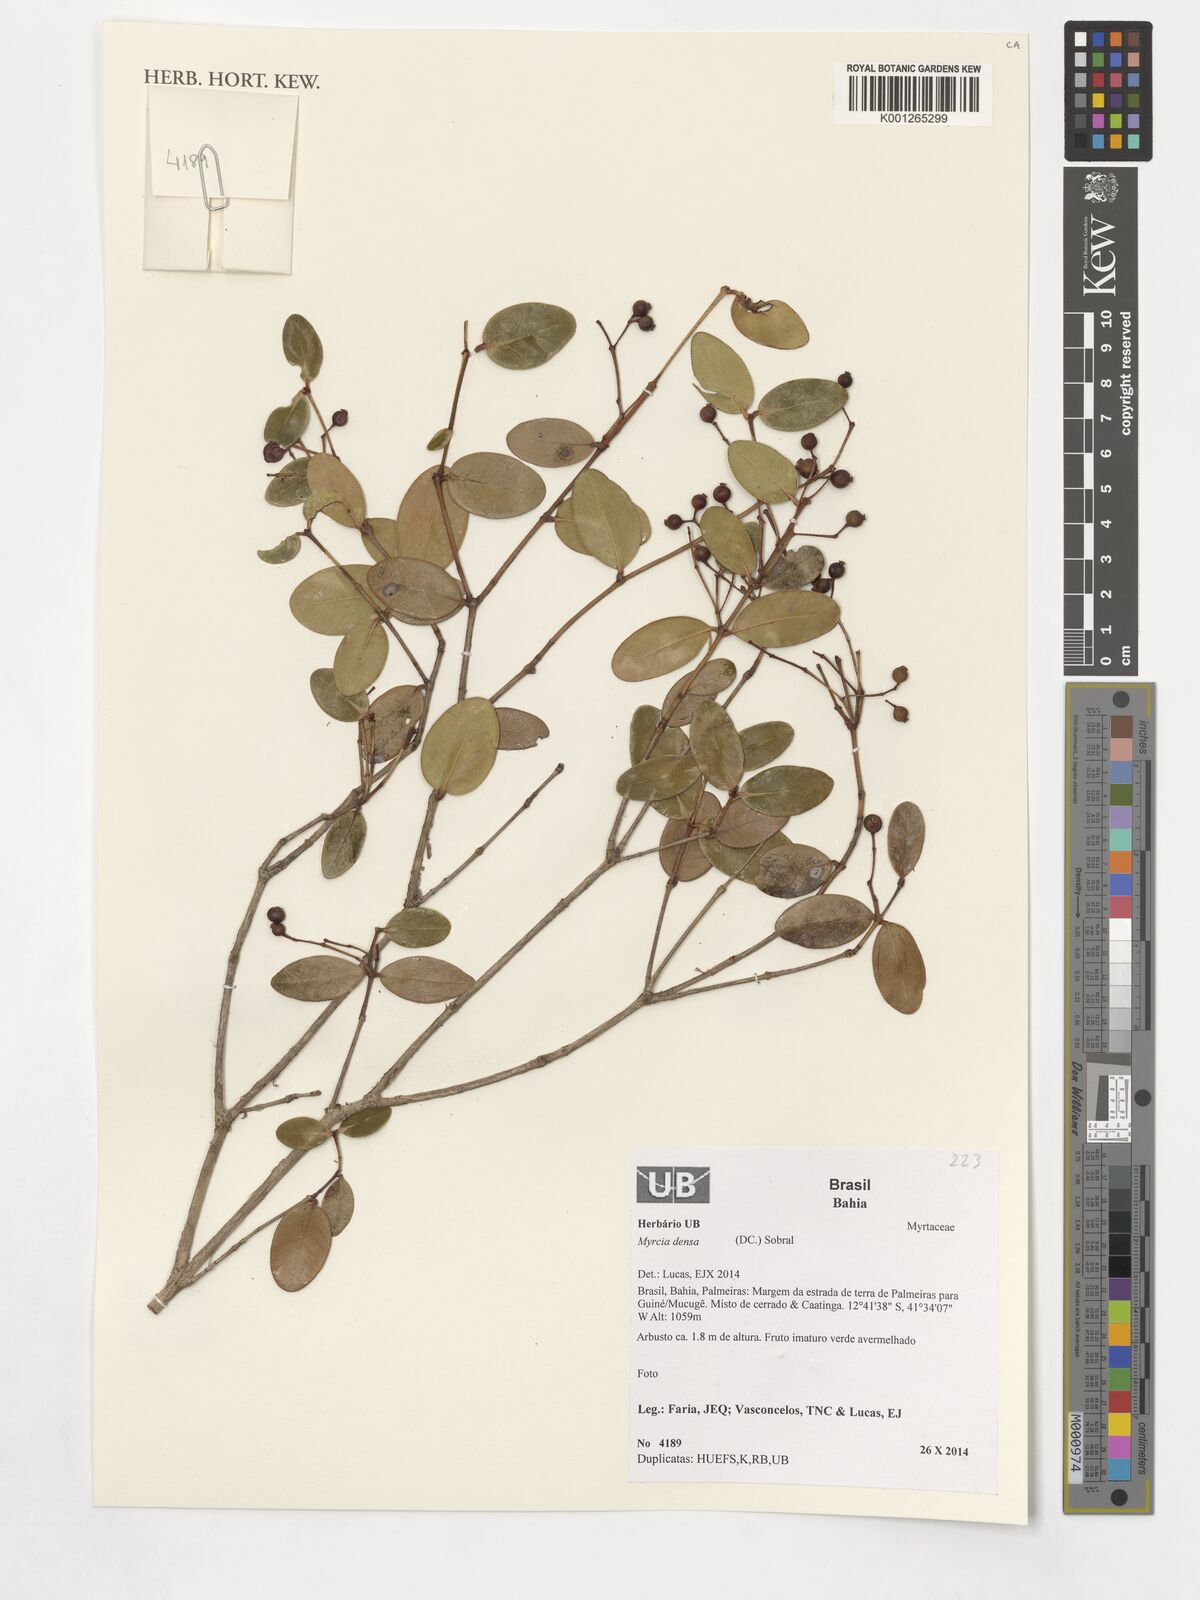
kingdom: Plantae
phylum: Tracheophyta
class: Magnoliopsida
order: Myrtales
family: Myrtaceae
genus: Myrcia
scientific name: Myrcia densa
